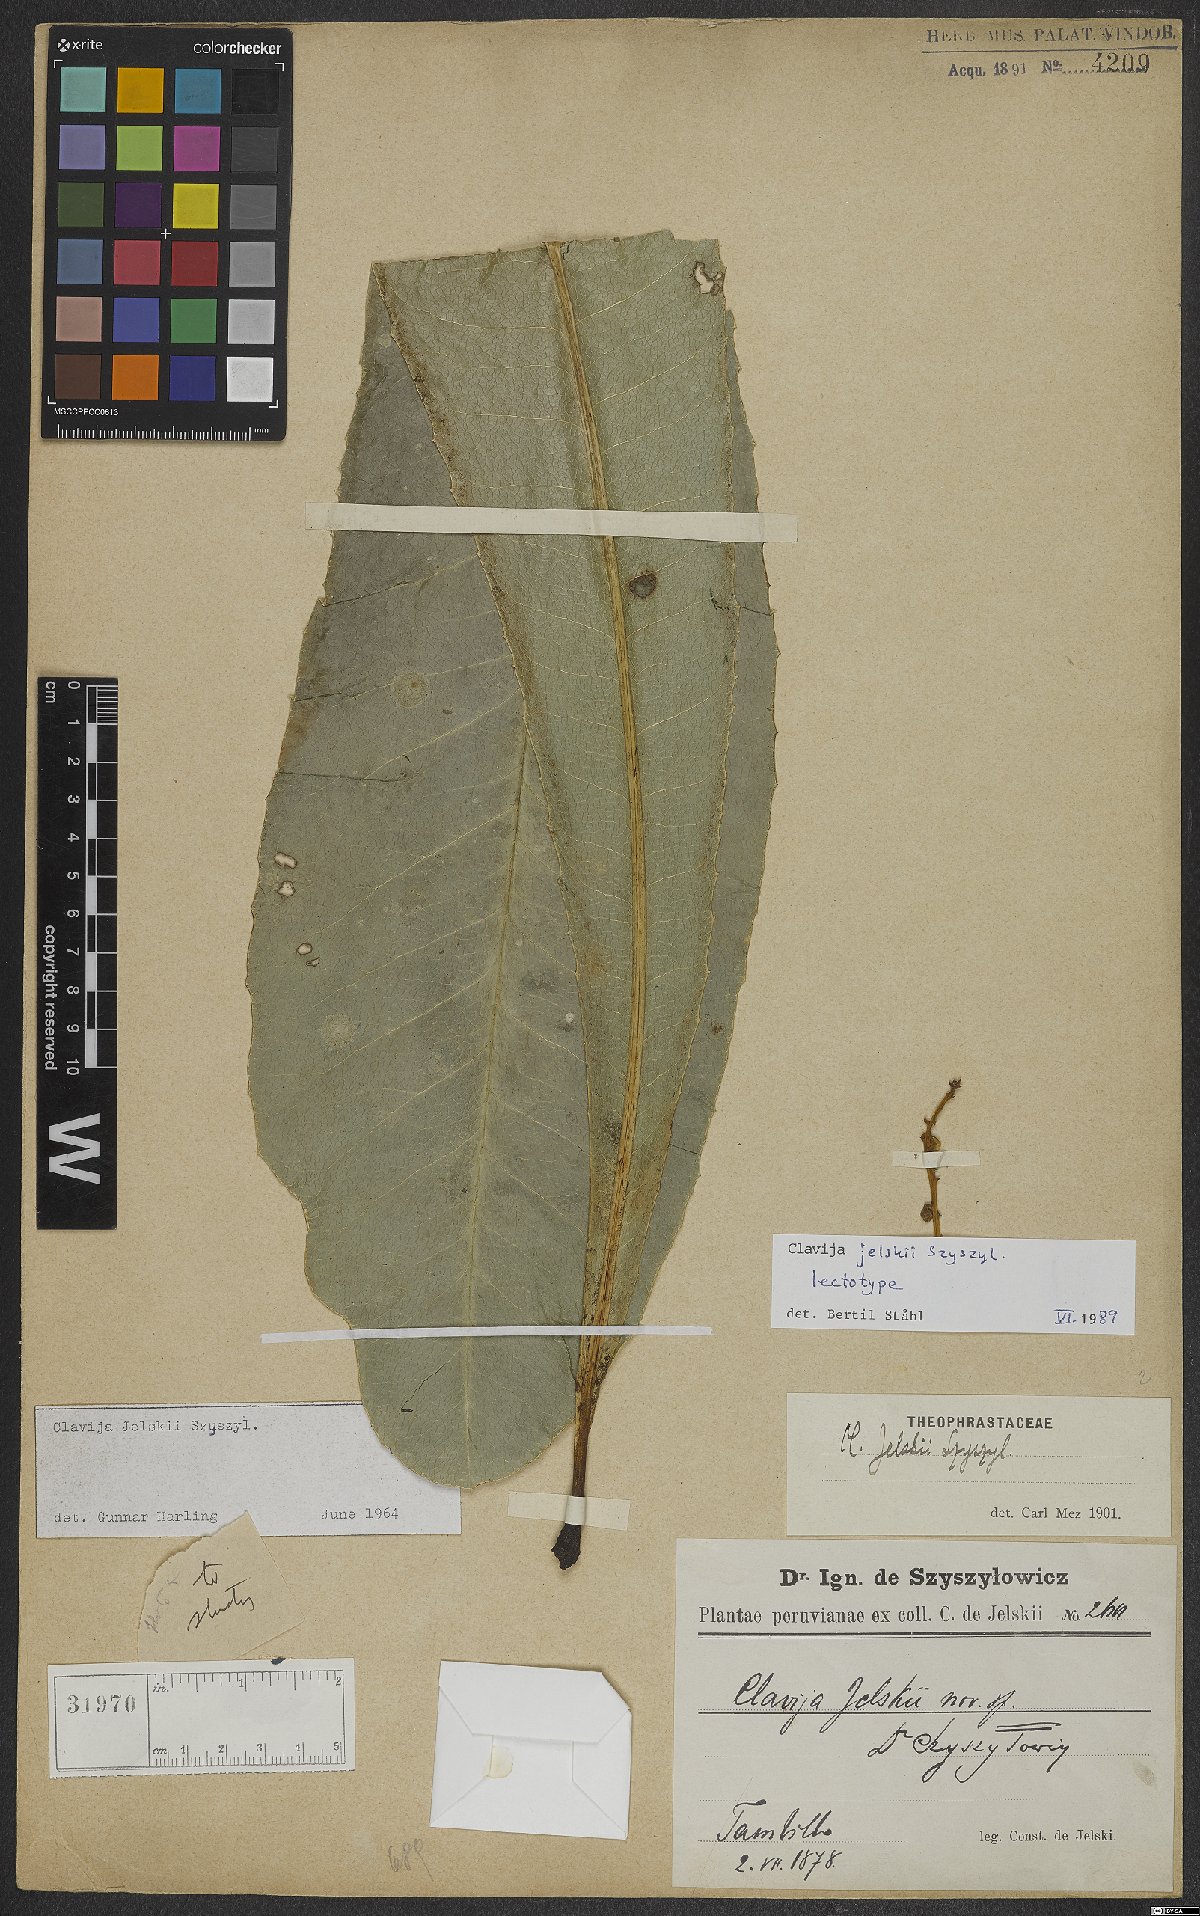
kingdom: Plantae
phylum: Tracheophyta
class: Magnoliopsida
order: Ericales
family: Primulaceae
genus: Clavija
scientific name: Clavija jelskii
